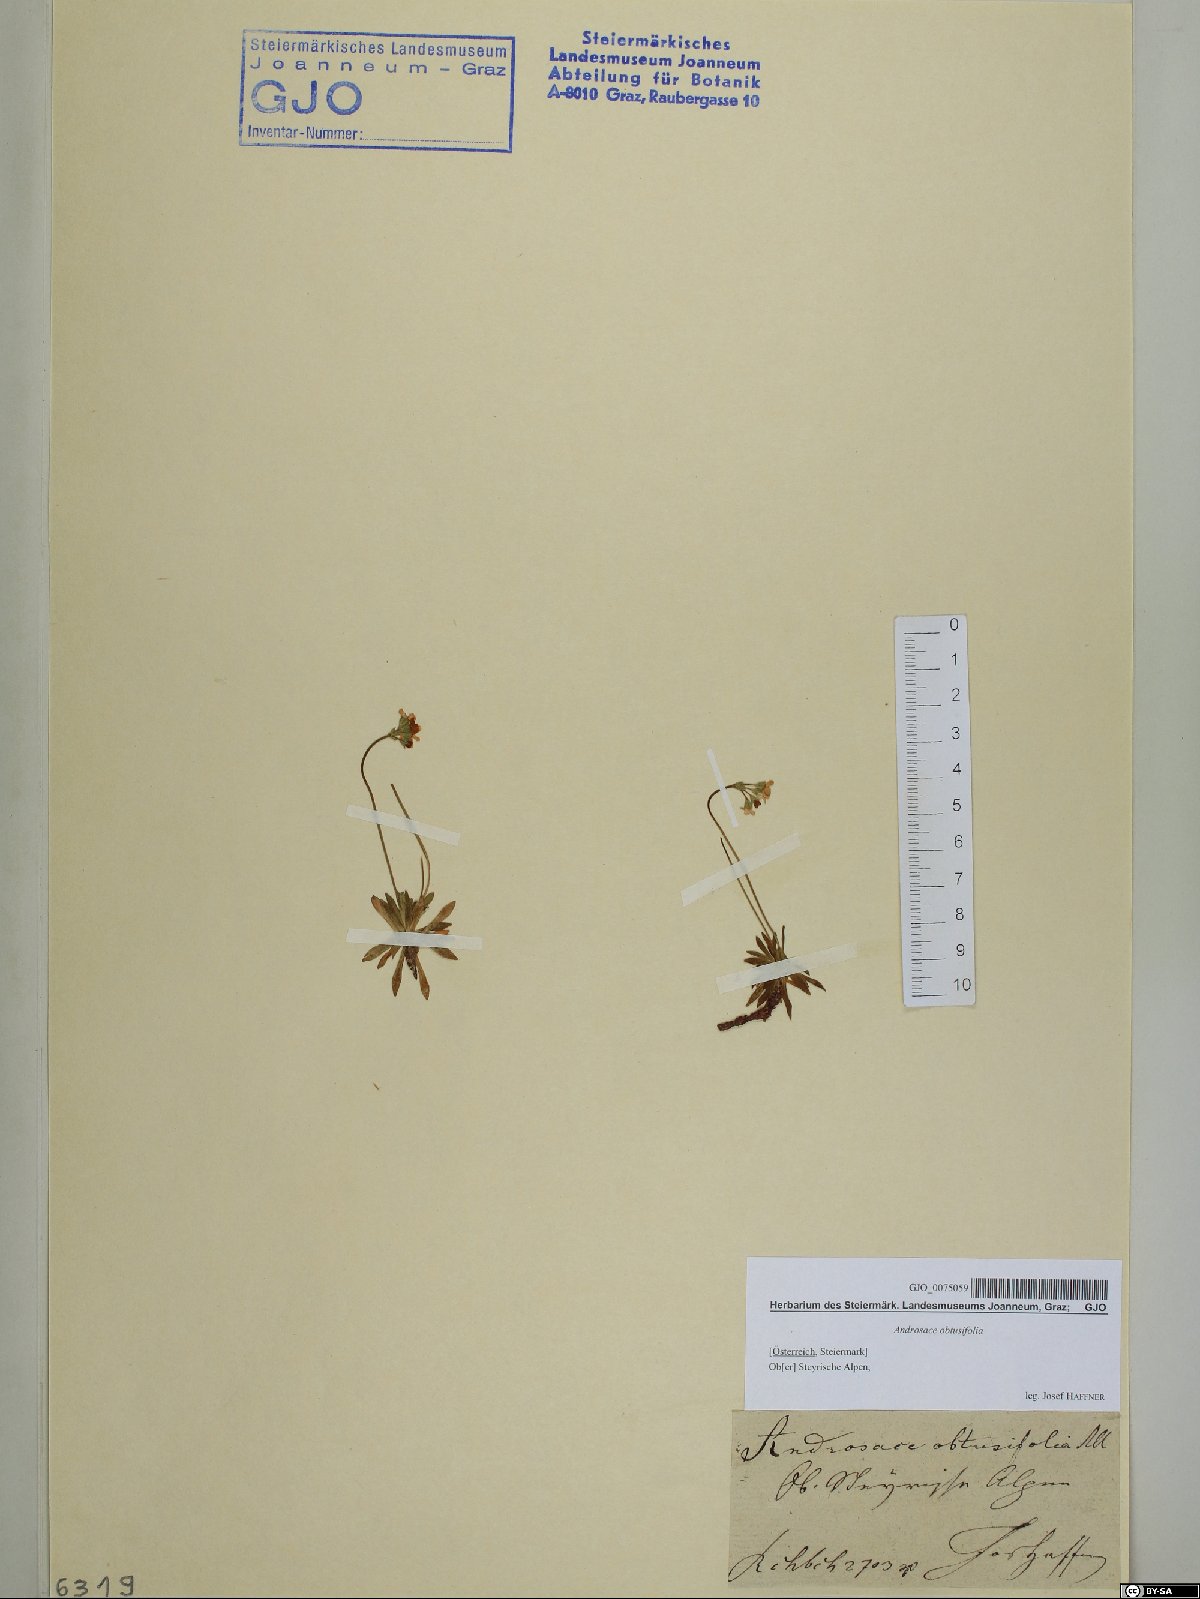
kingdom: Plantae
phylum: Tracheophyta
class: Magnoliopsida
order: Ericales
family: Primulaceae
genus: Androsace
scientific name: Androsace obtusifolia
